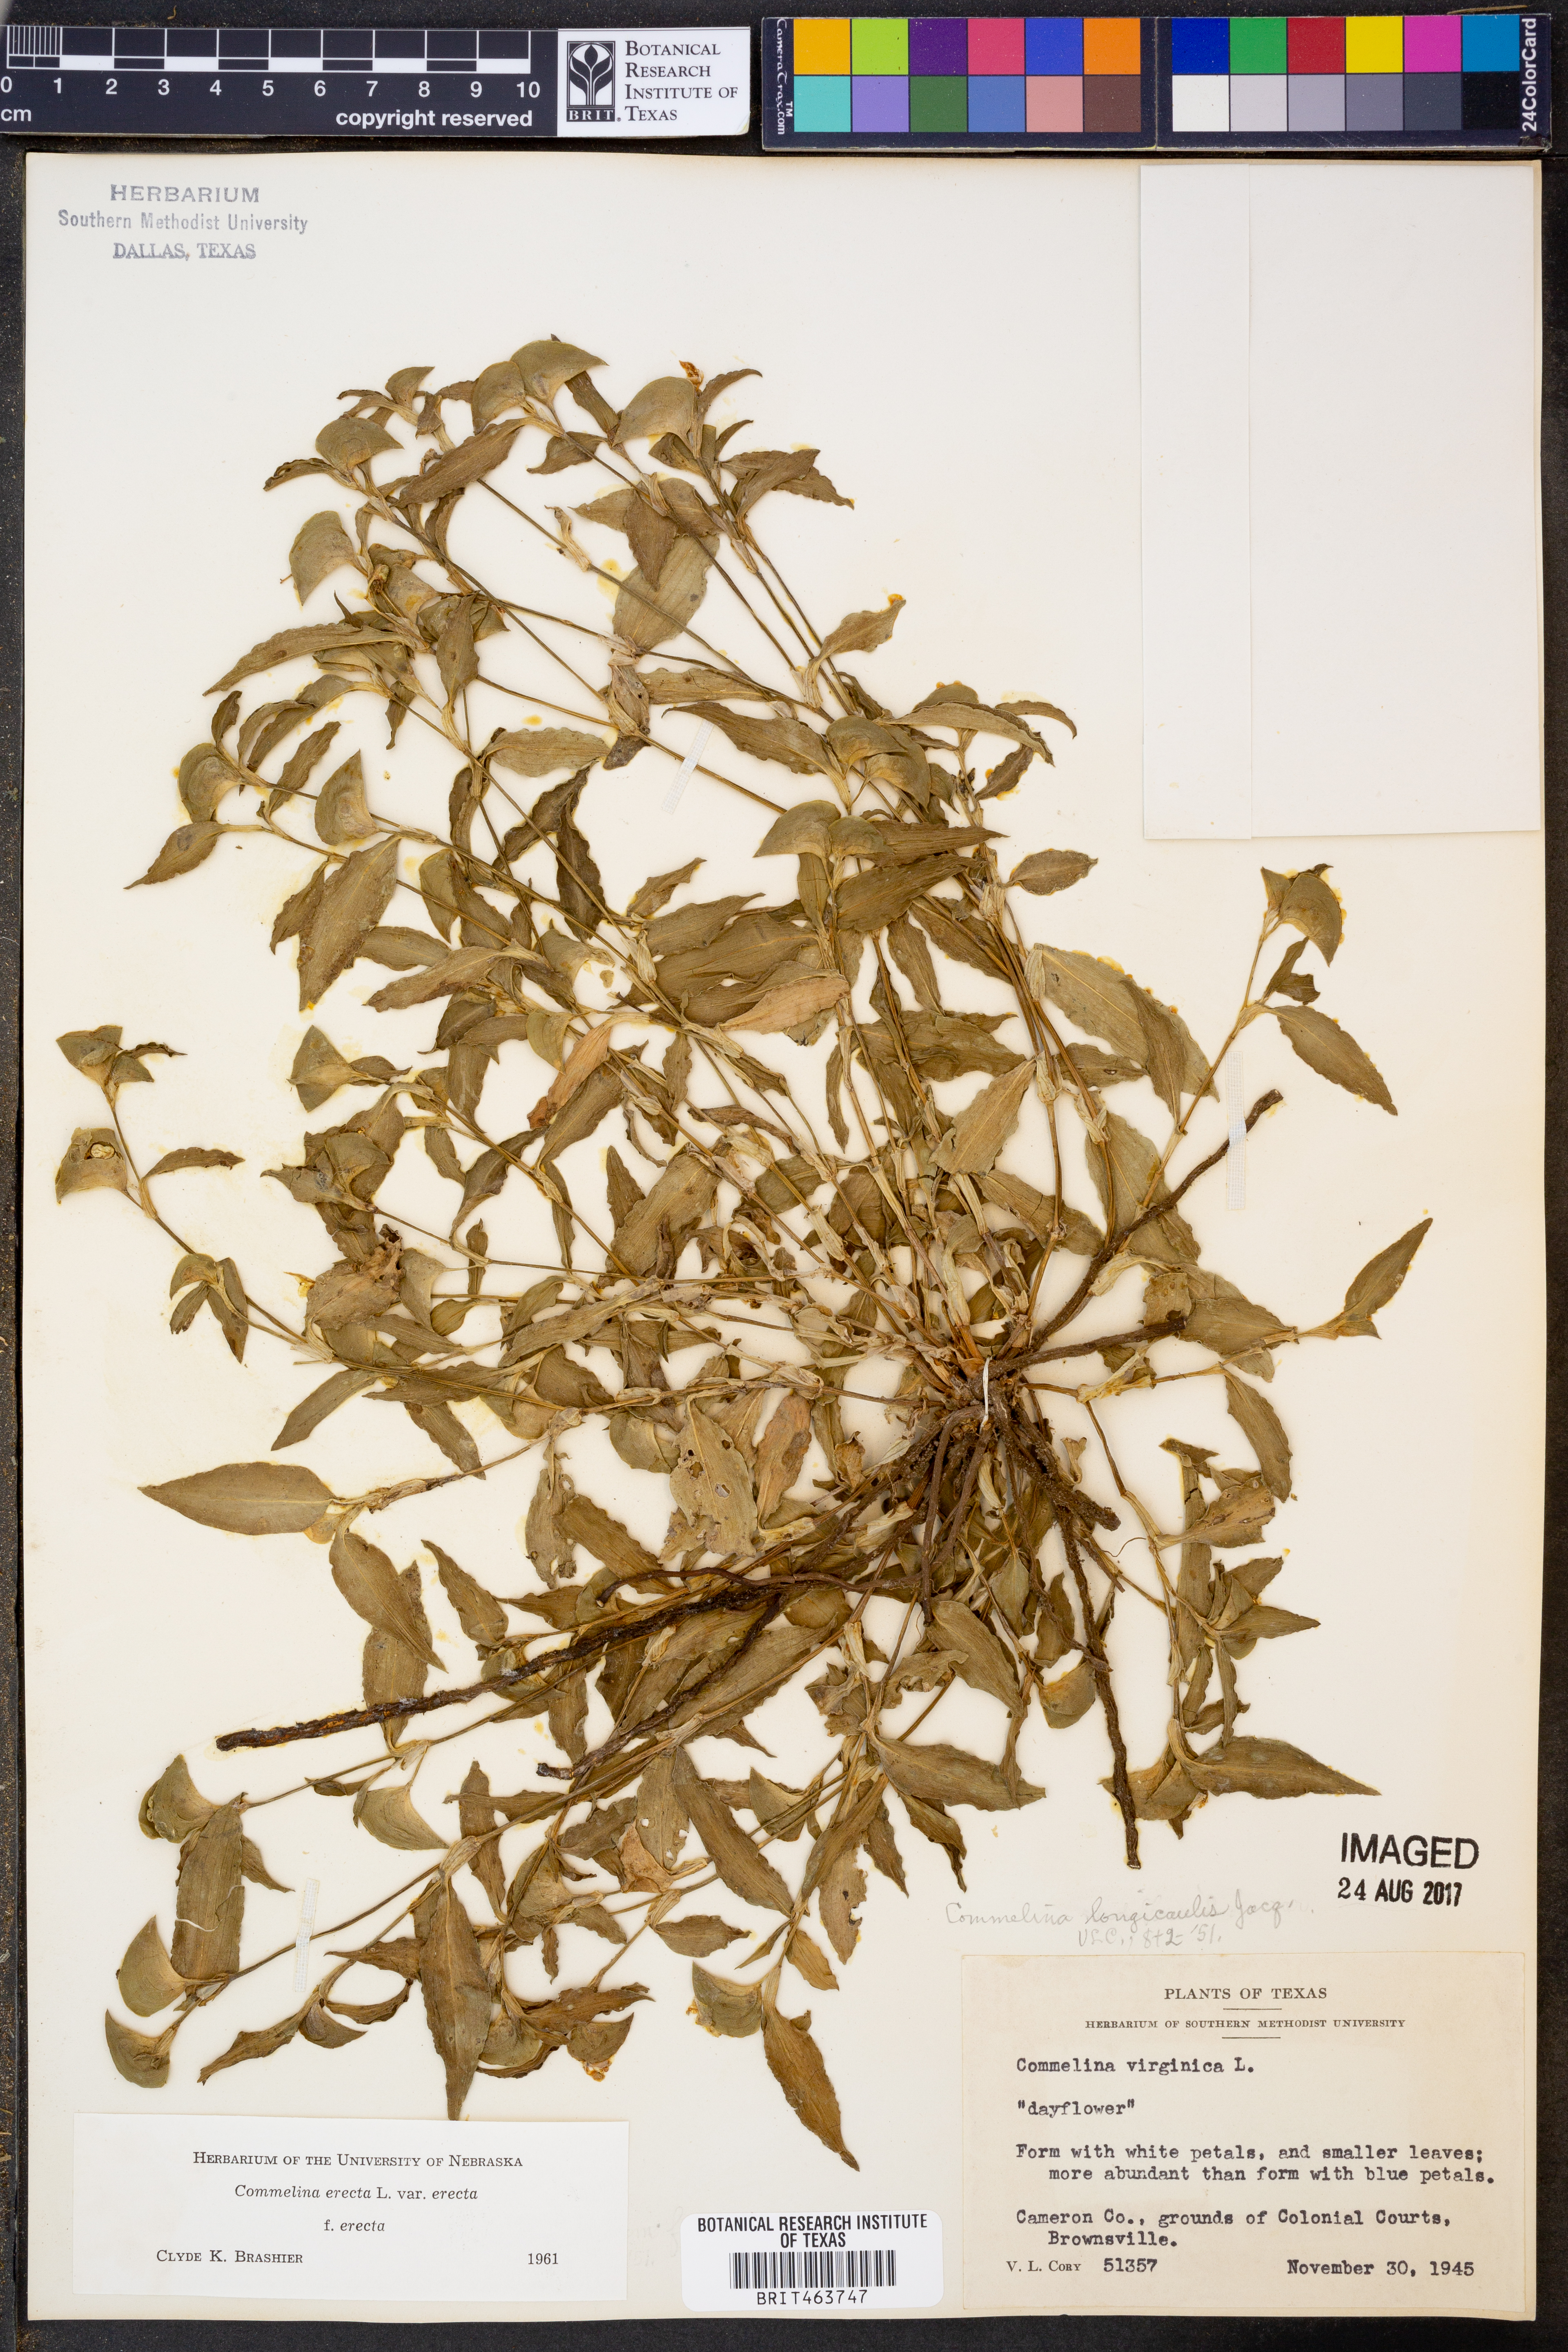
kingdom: Plantae
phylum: Tracheophyta
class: Liliopsida
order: Commelinales
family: Commelinaceae
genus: Commelina
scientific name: Commelina erecta
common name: Blousel blommetjie
